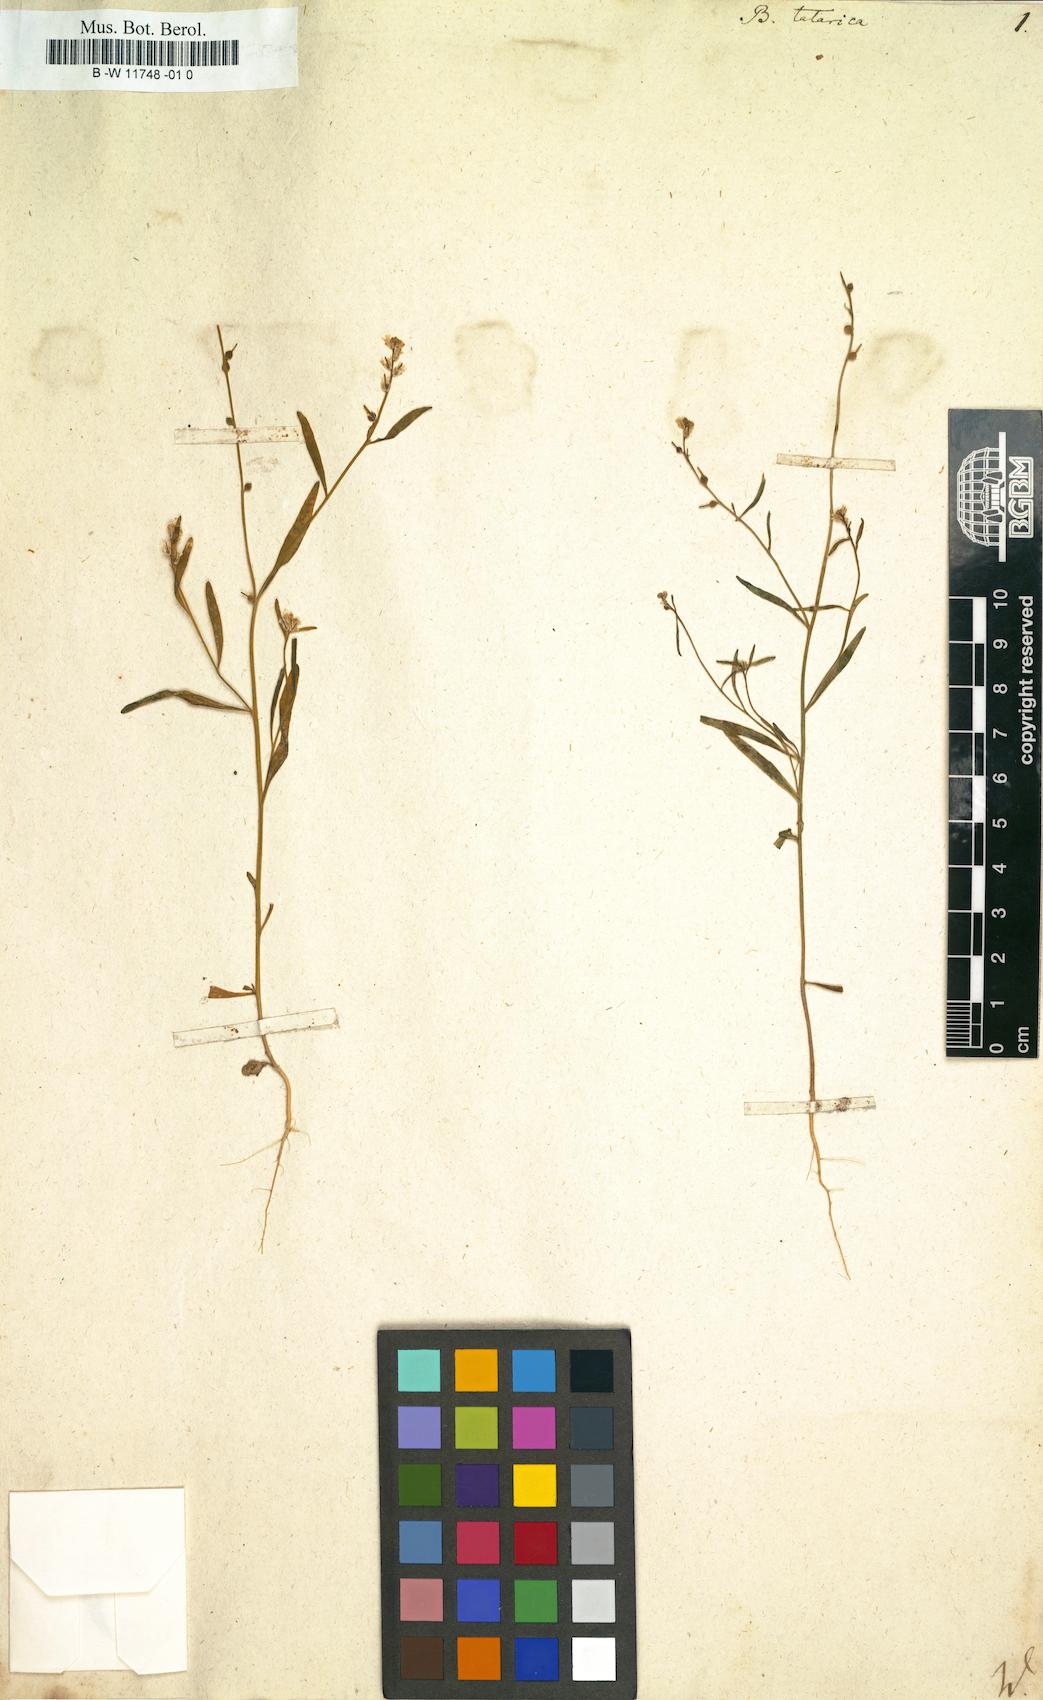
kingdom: Plantae
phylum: Tracheophyta
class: Magnoliopsida
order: Brassicales
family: Brassicaceae
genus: Litwinowia
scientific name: Litwinowia tenuissima
